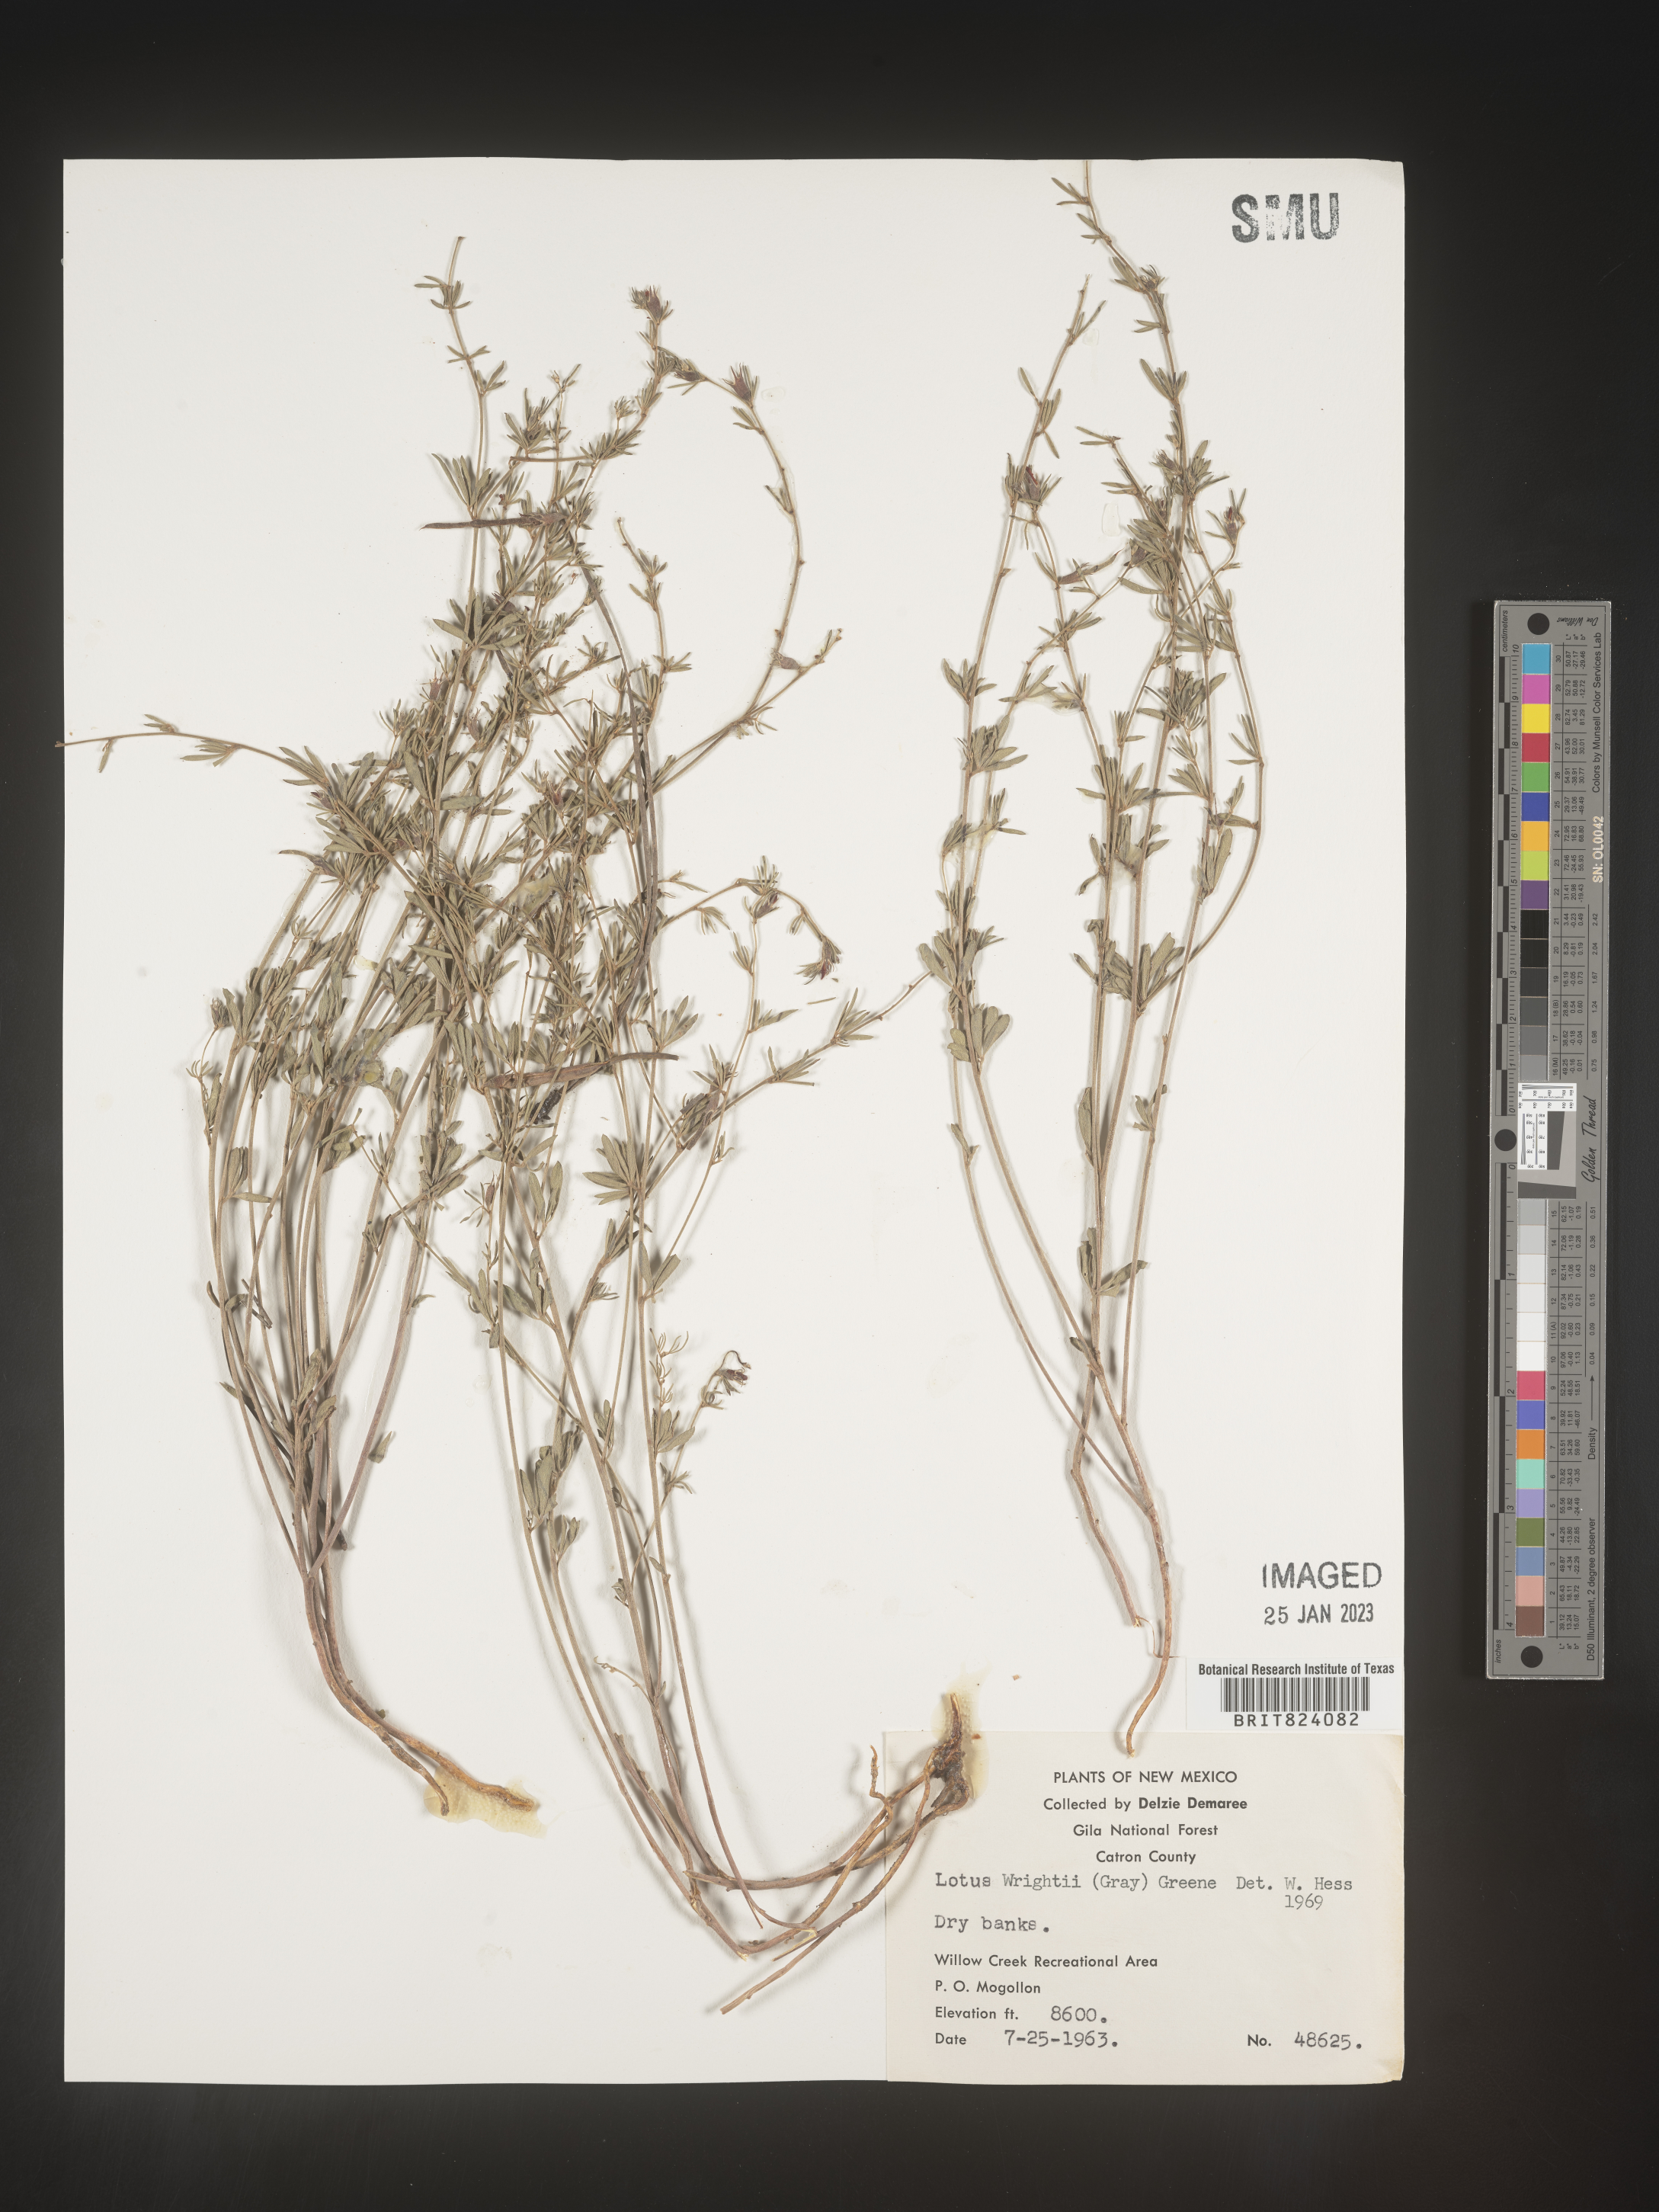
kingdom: Plantae
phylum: Tracheophyta
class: Magnoliopsida
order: Fabales
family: Fabaceae
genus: Acmispon
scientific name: Acmispon wrightii
